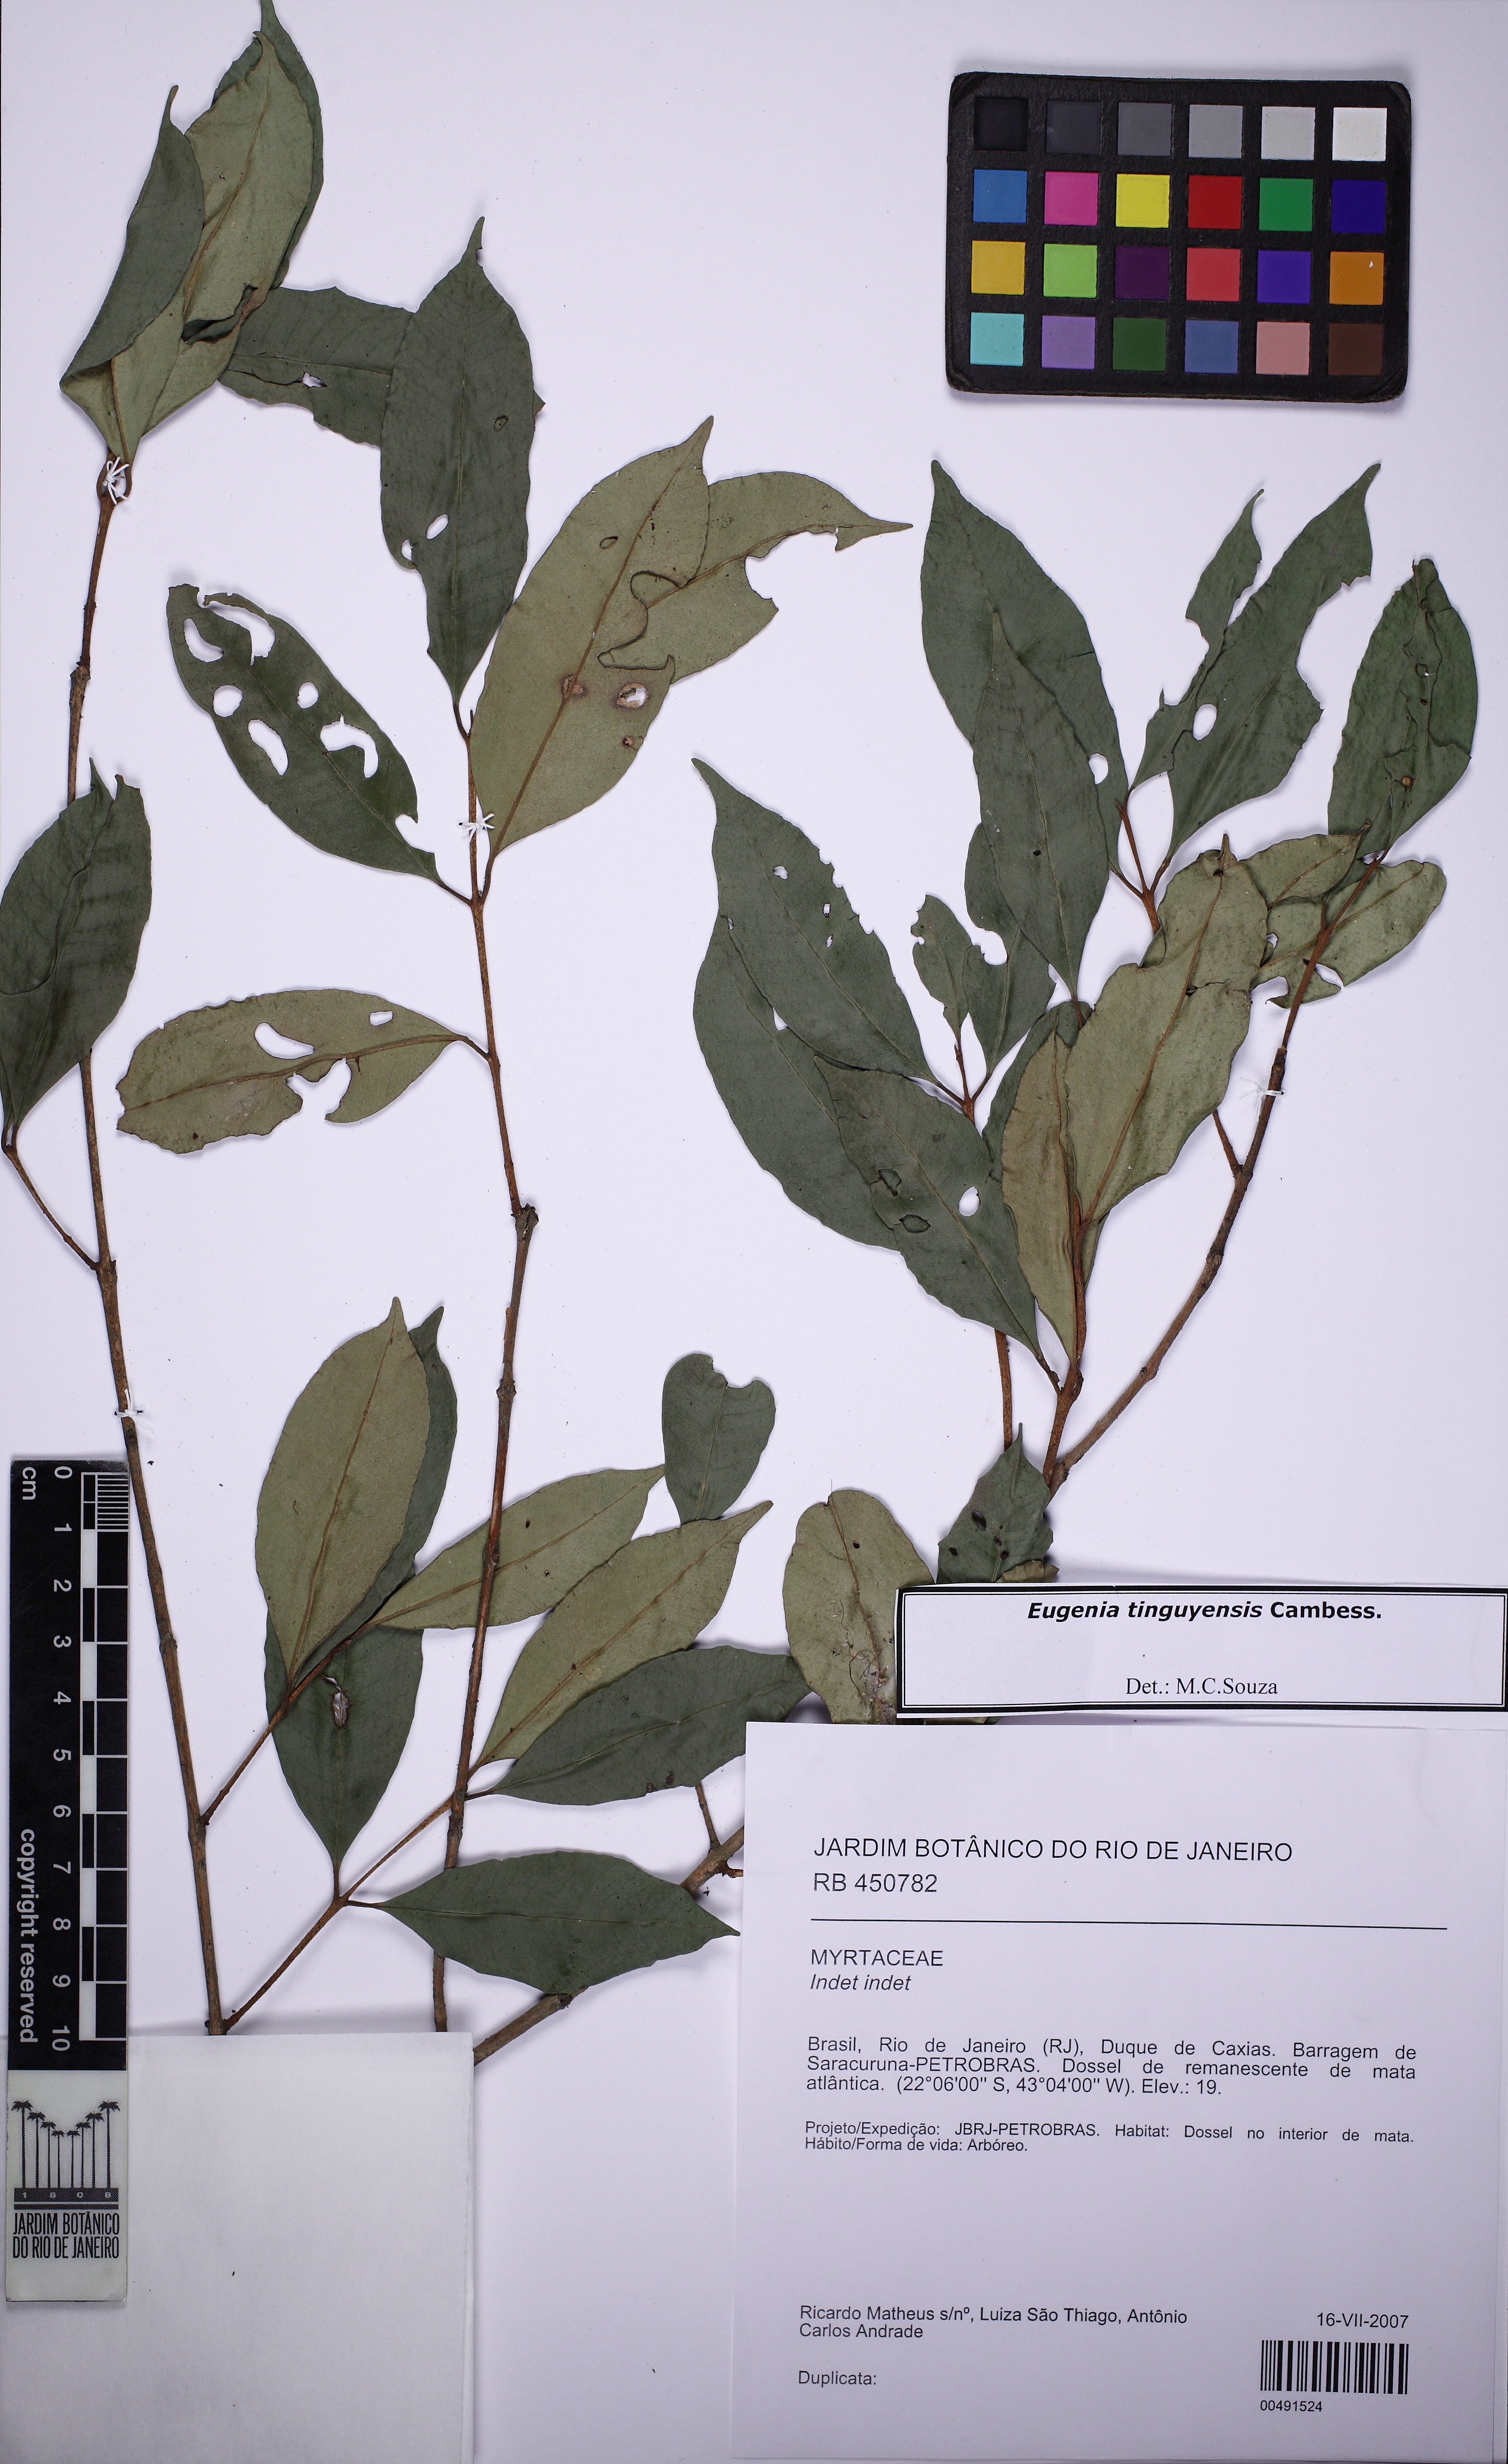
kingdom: Plantae
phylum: Tracheophyta
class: Magnoliopsida
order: Myrtales
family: Myrtaceae
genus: Eugenia
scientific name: Eugenia pisiformis
